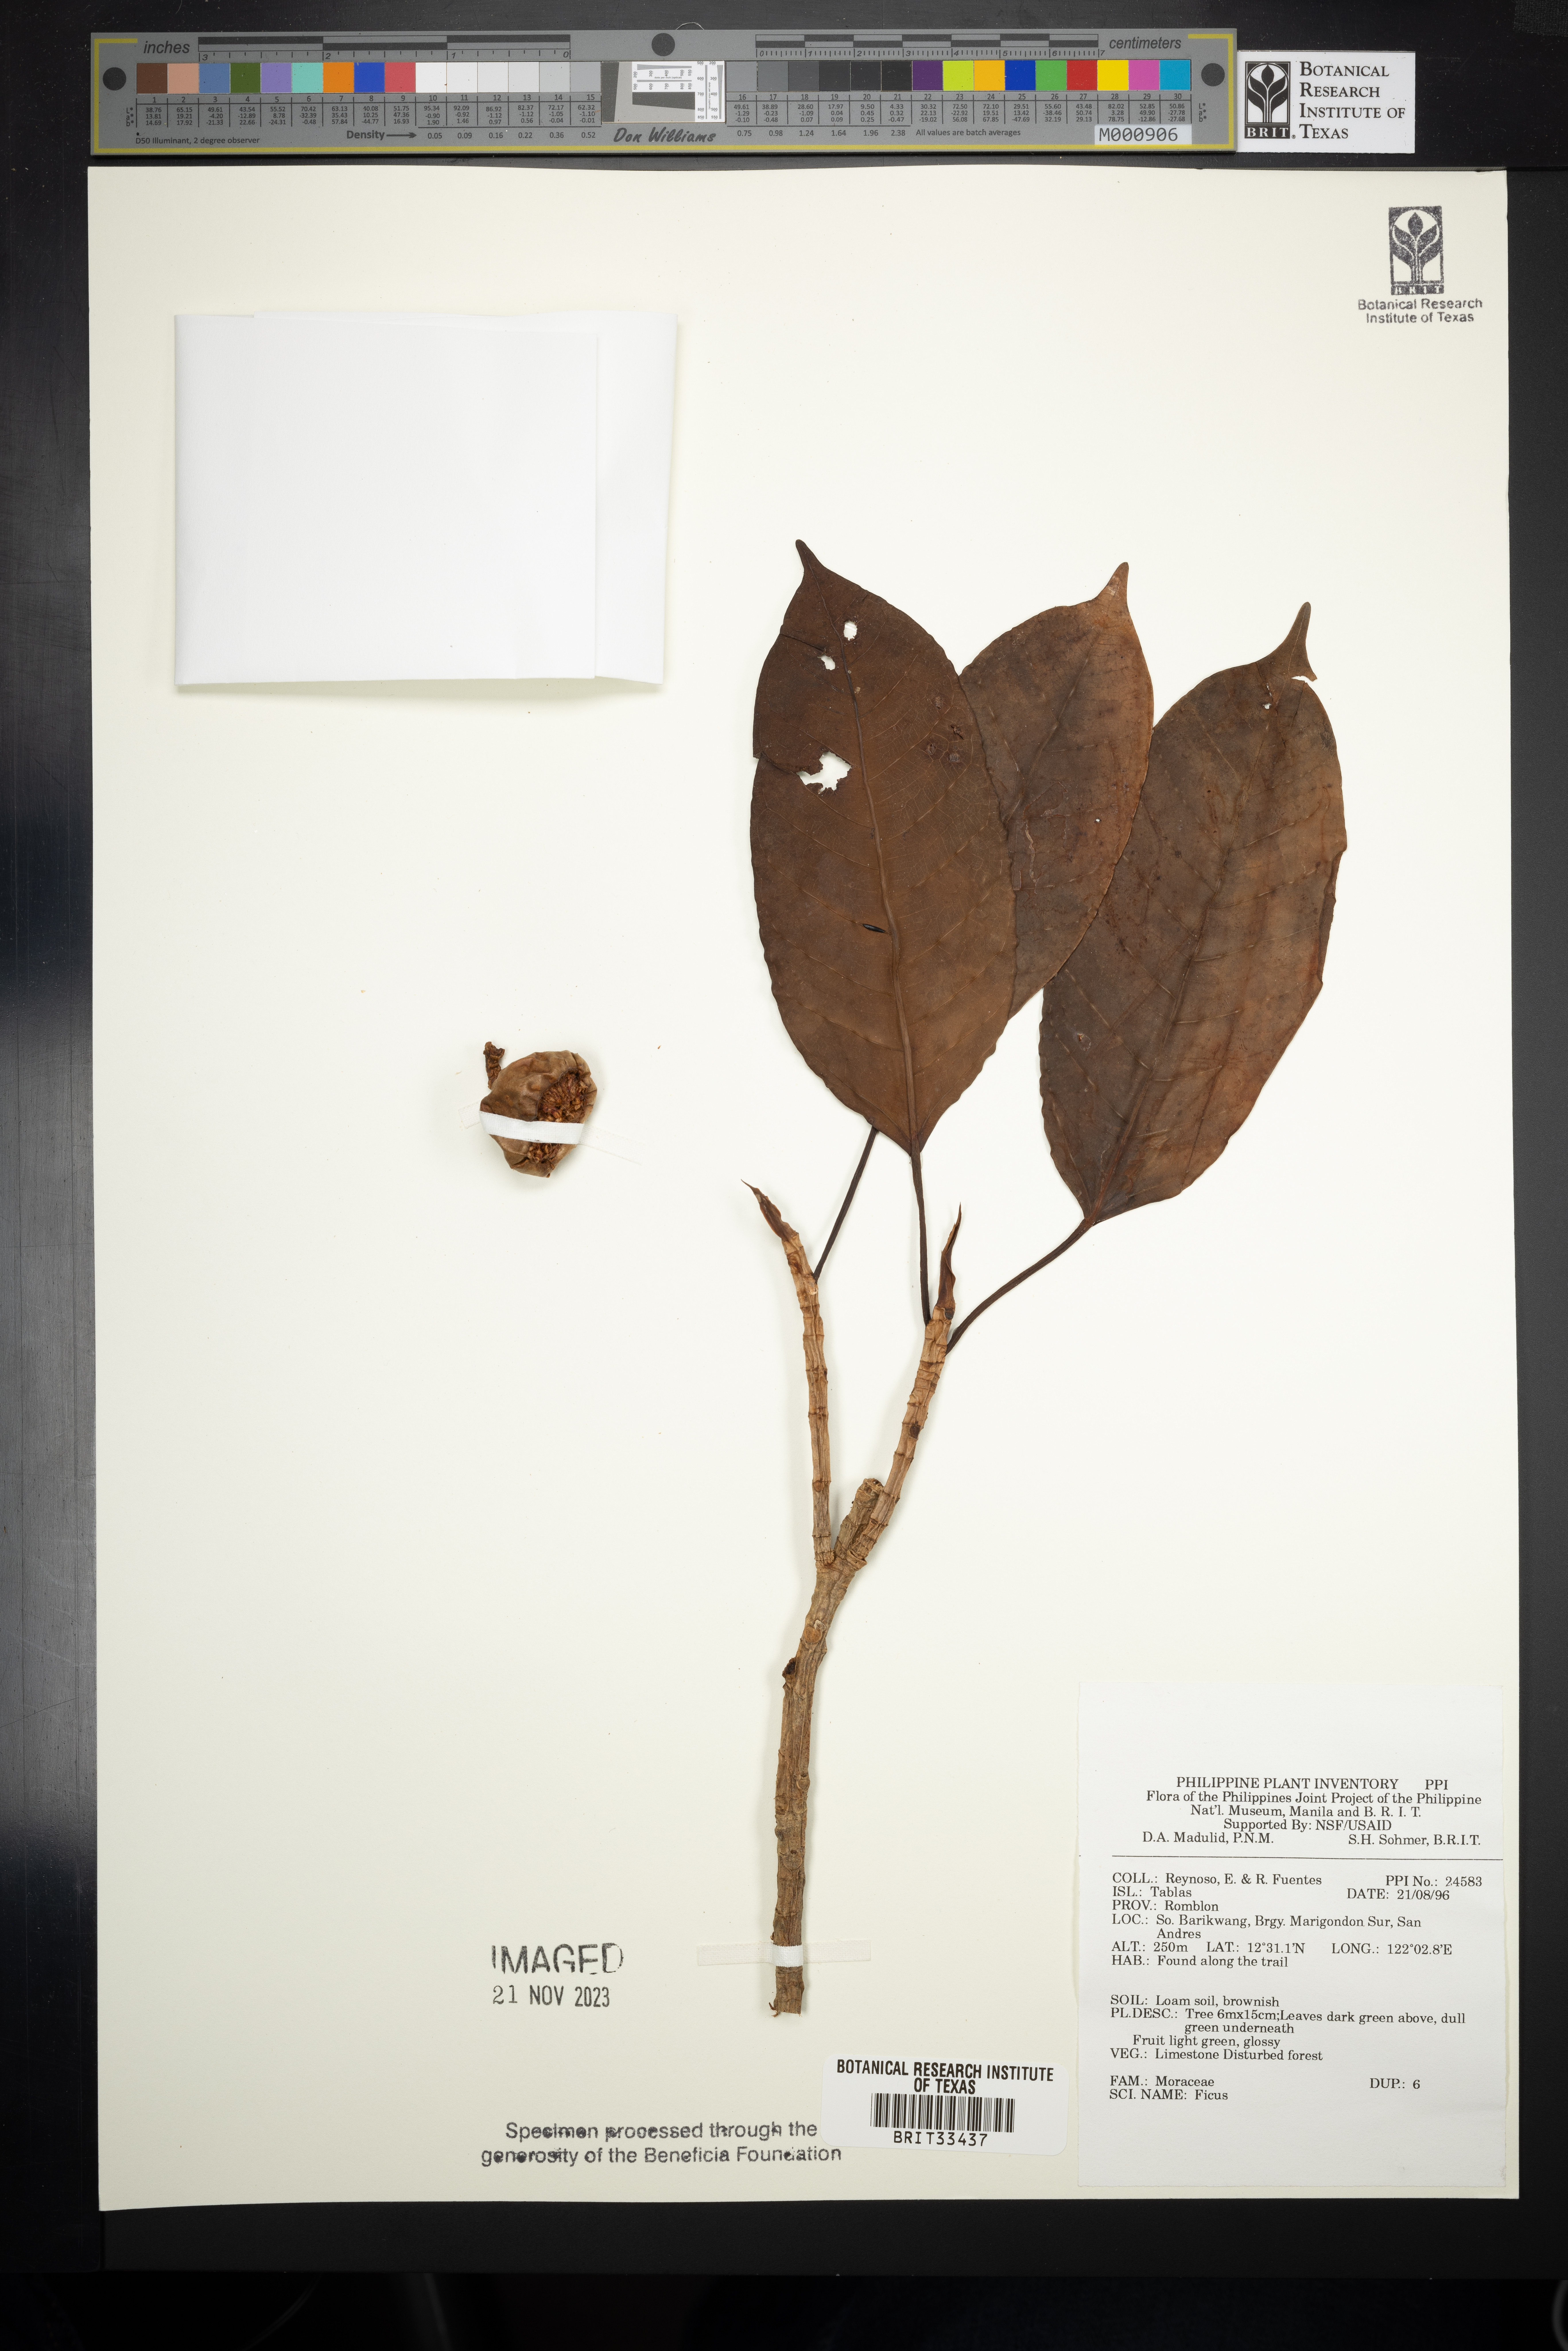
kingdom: Plantae
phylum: Tracheophyta
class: Magnoliopsida
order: Rosales
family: Moraceae
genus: Ficus
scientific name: Ficus
